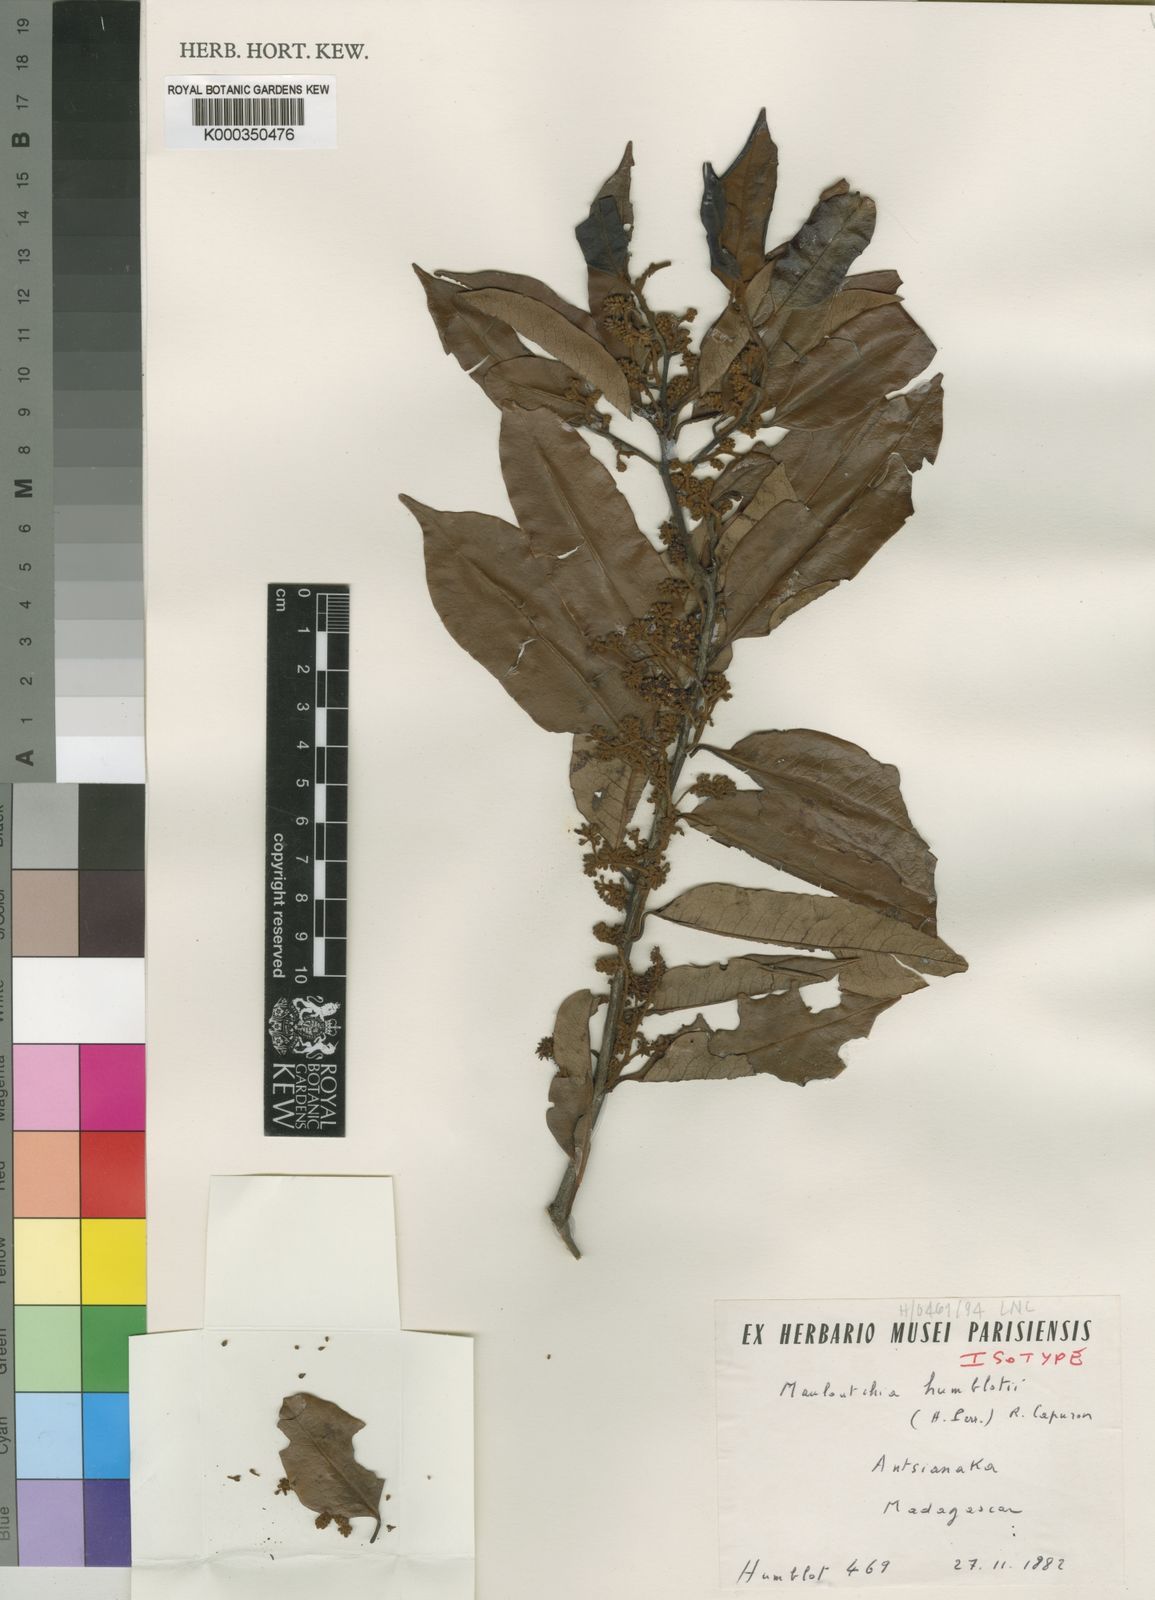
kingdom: Plantae
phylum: Tracheophyta
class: Magnoliopsida
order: Magnoliales
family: Myristicaceae
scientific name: Myristicaceae
